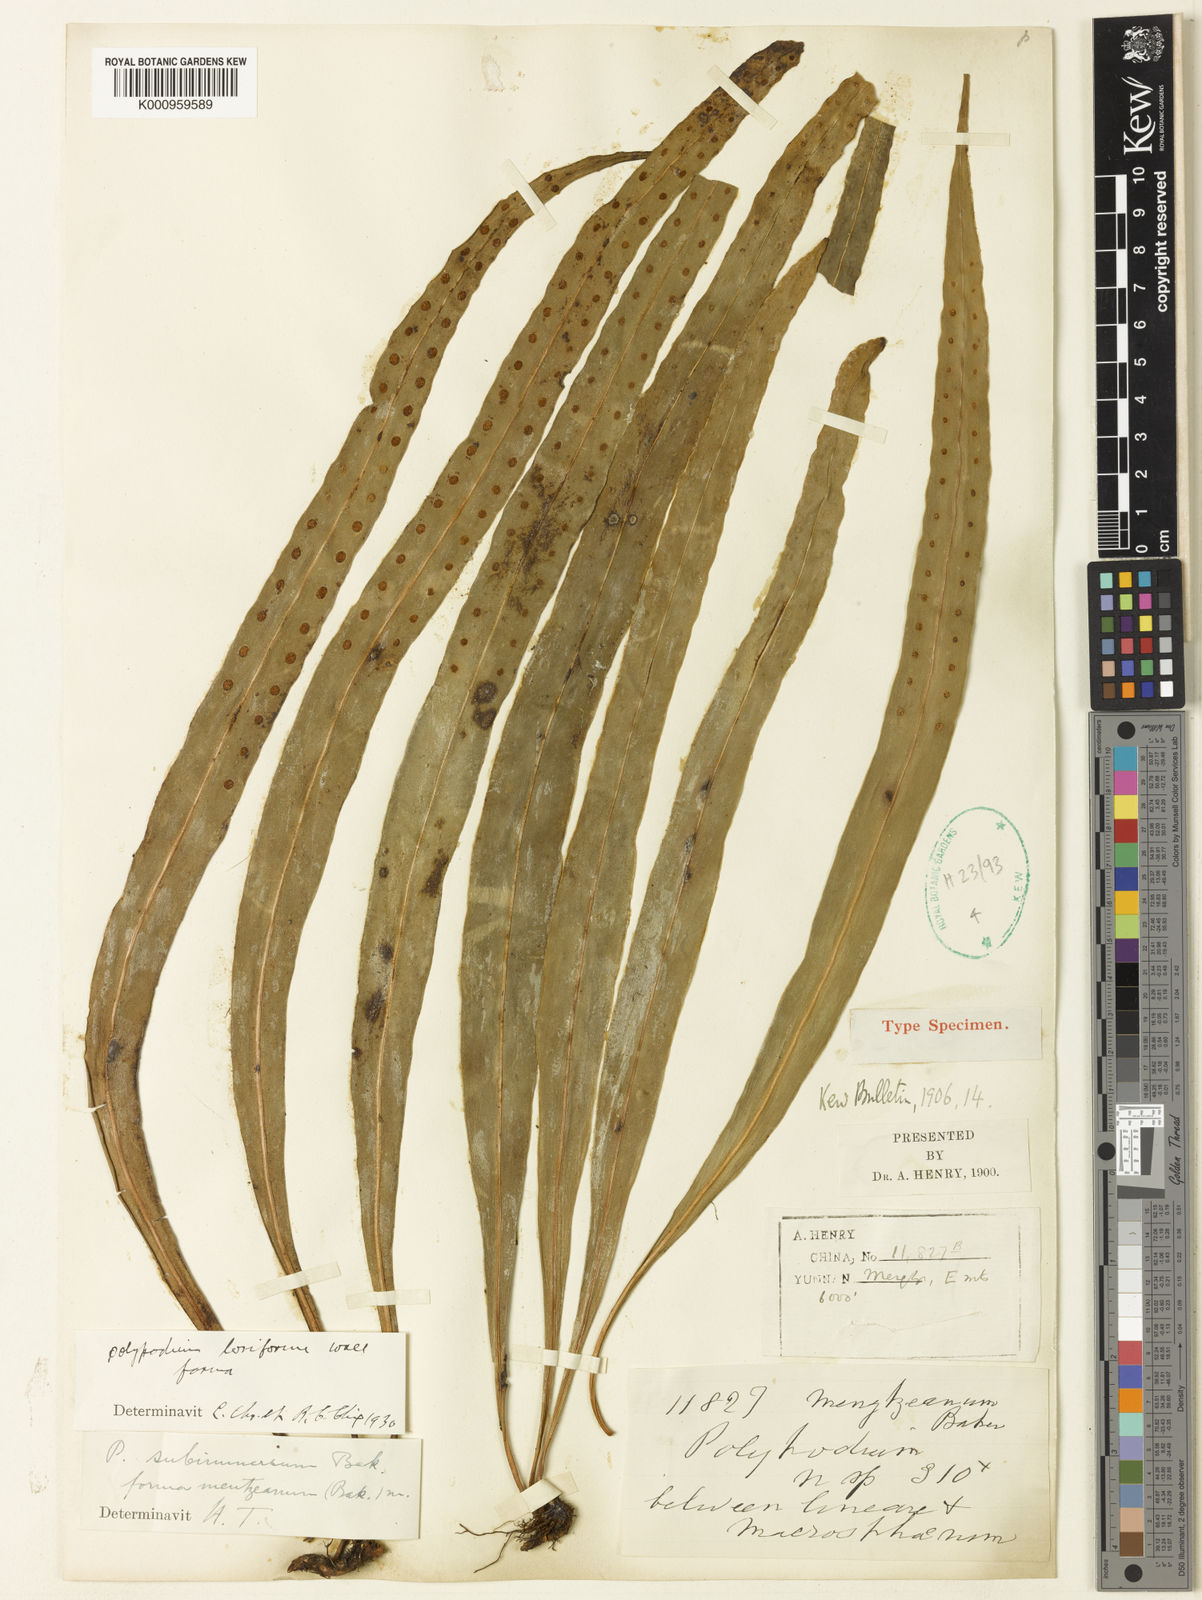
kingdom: Plantae
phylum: Tracheophyta
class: Polypodiopsida
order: Polypodiales
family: Polypodiaceae
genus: Lepisorus
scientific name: Lepisorus loriformis
